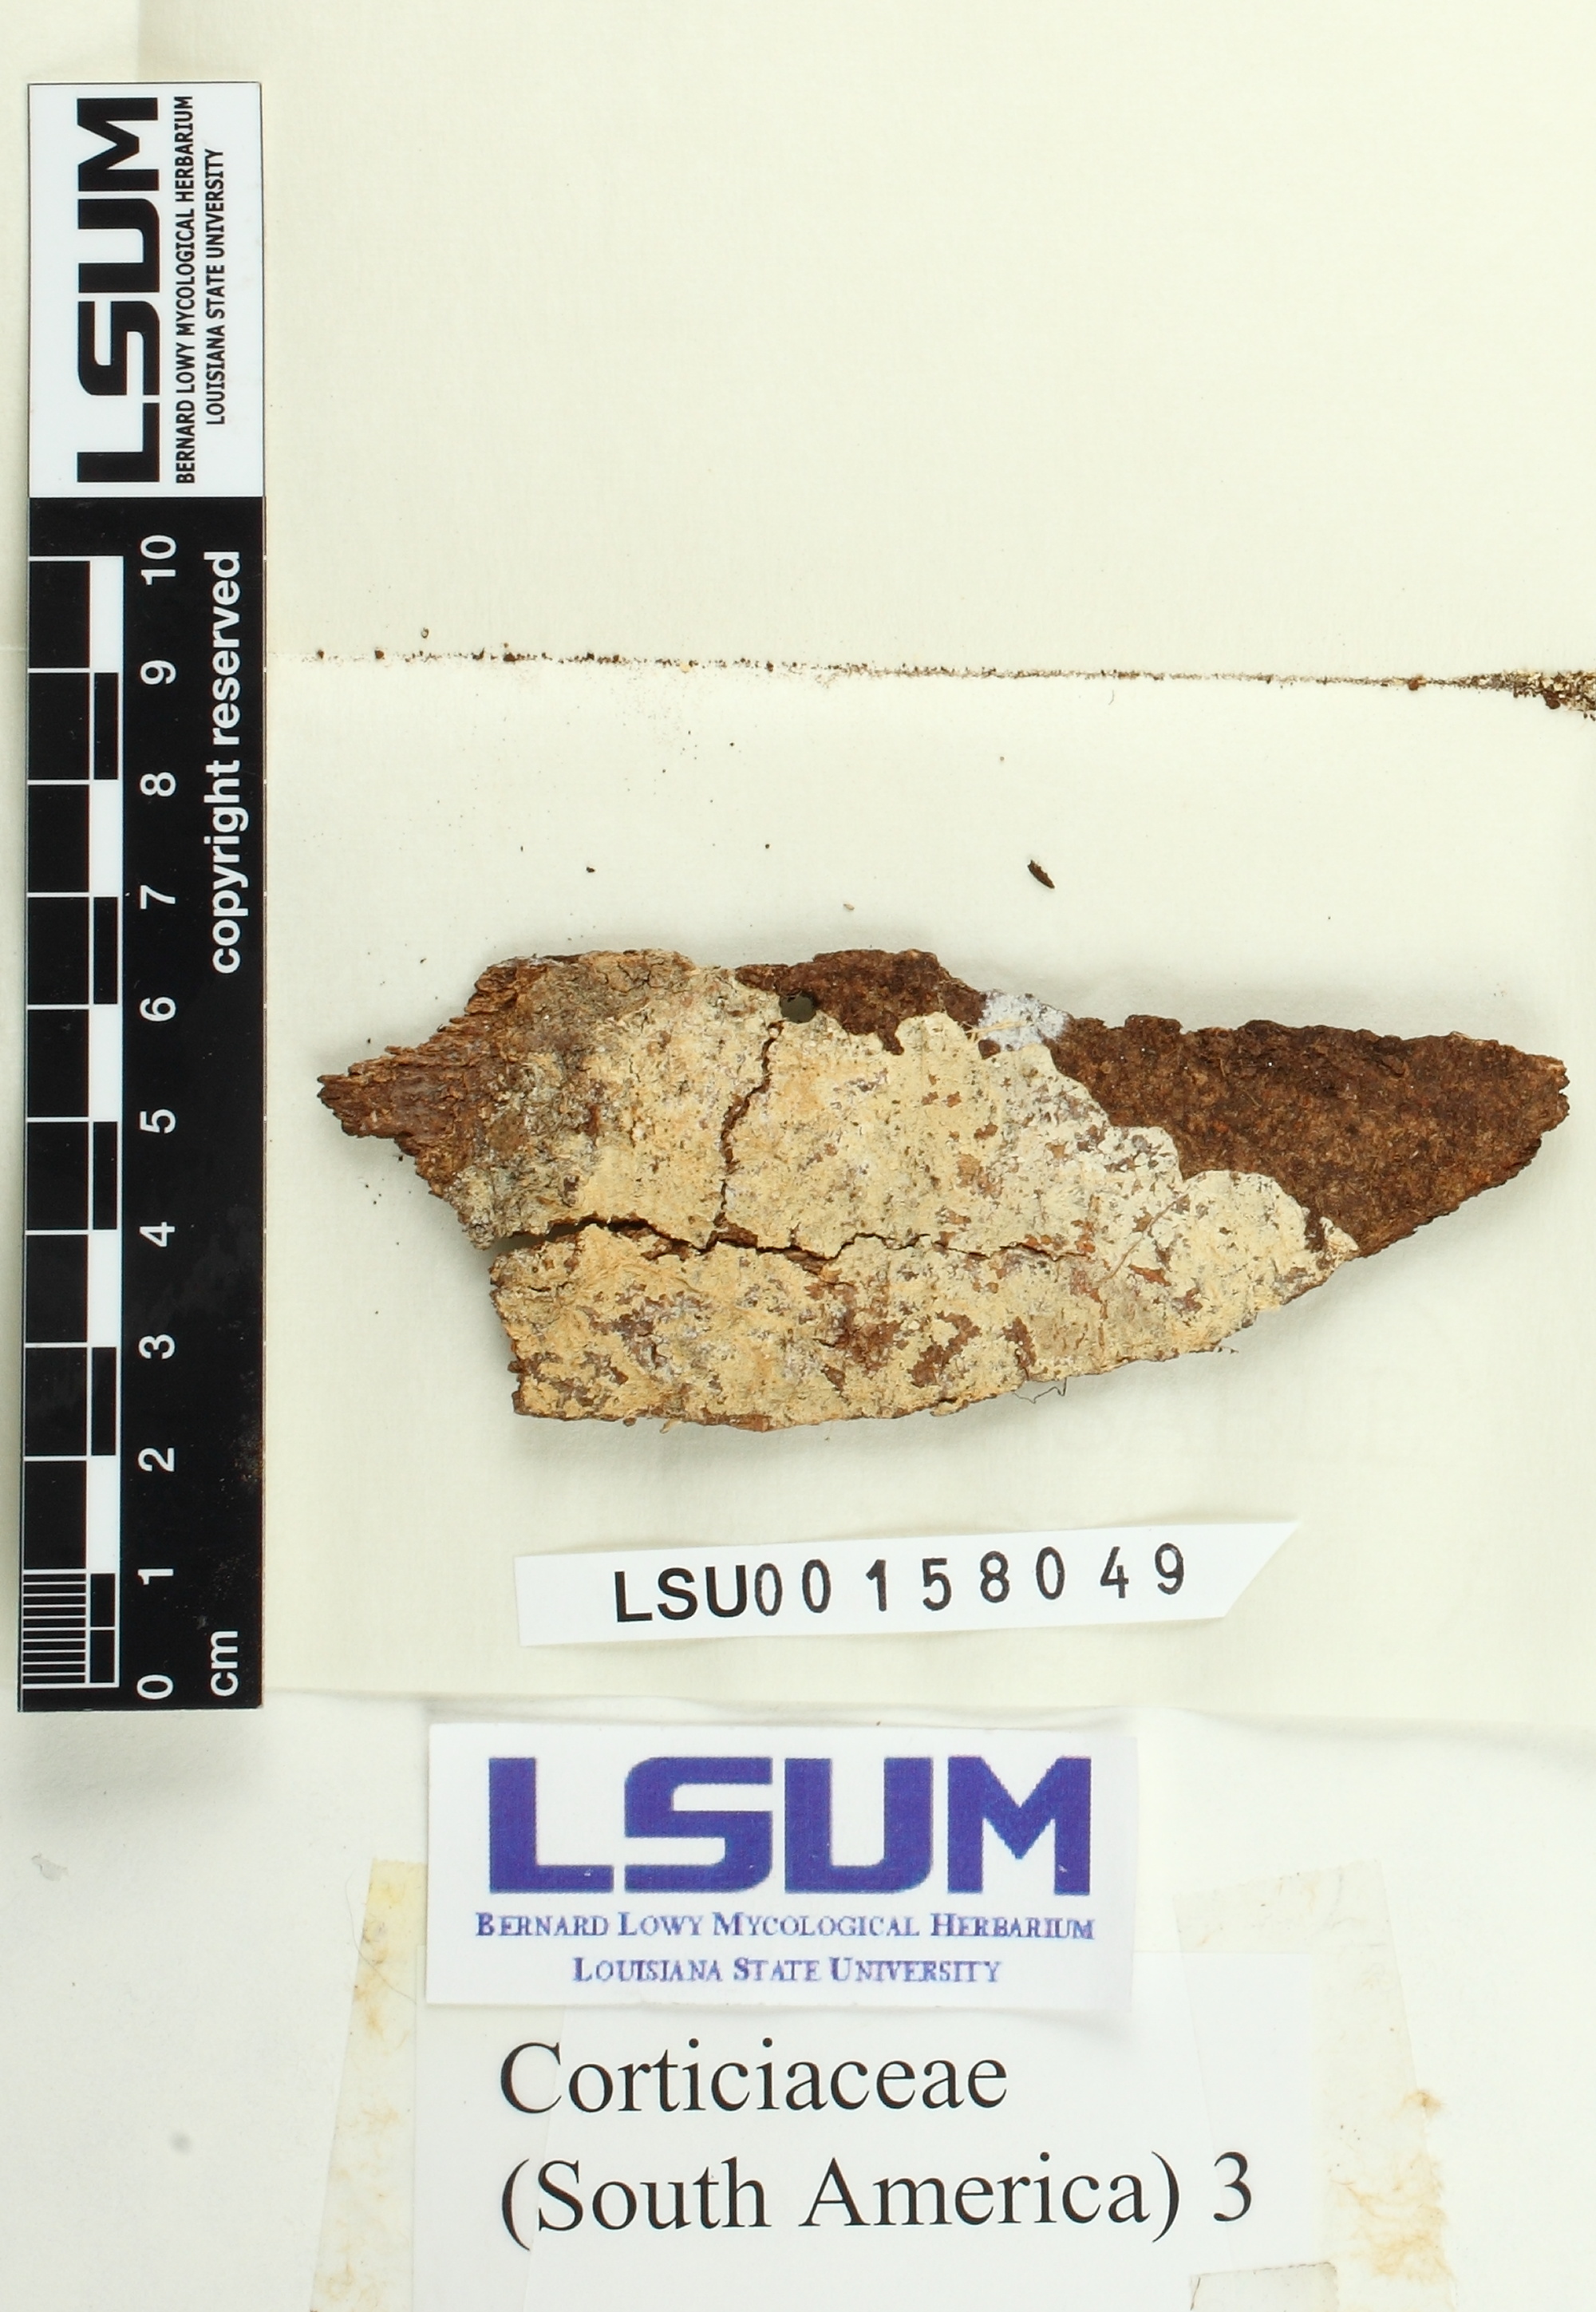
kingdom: Fungi
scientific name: Fungi
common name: Fungi
